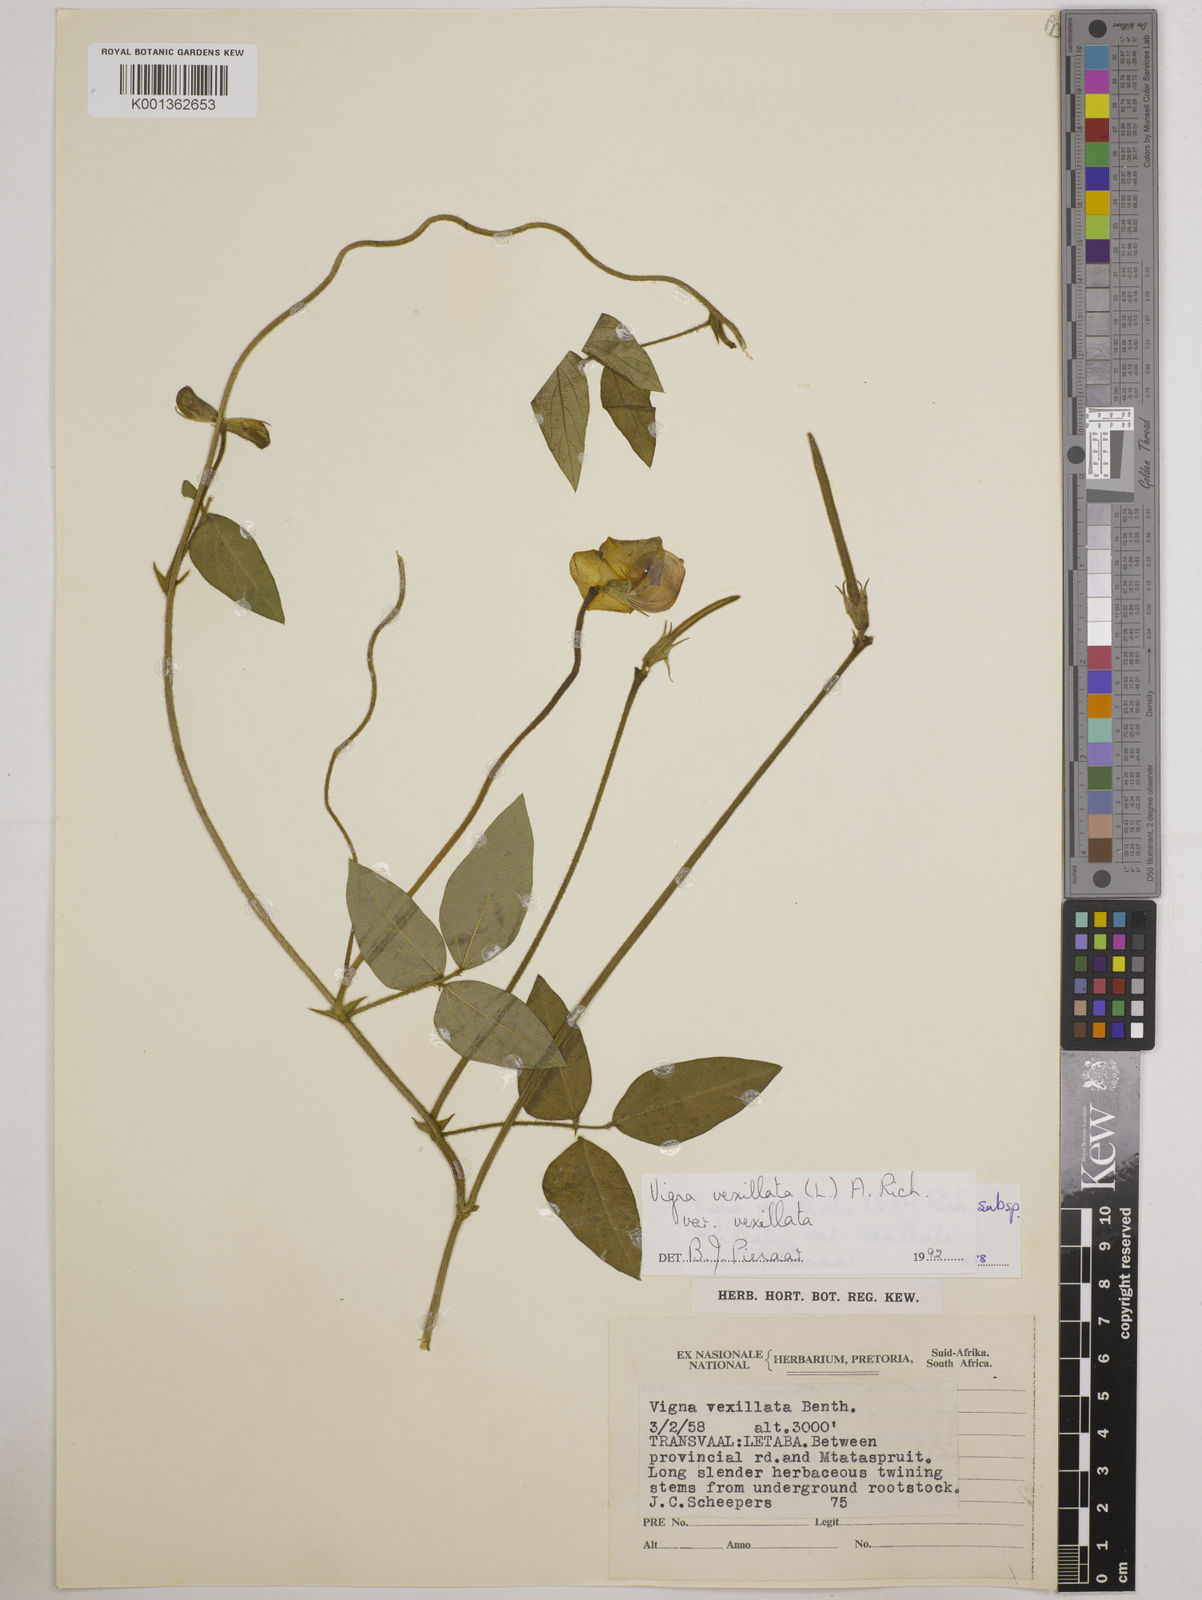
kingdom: Plantae
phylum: Tracheophyta
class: Magnoliopsida
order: Fabales
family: Fabaceae
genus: Vigna
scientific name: Vigna vexillata
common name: Zombi pea
